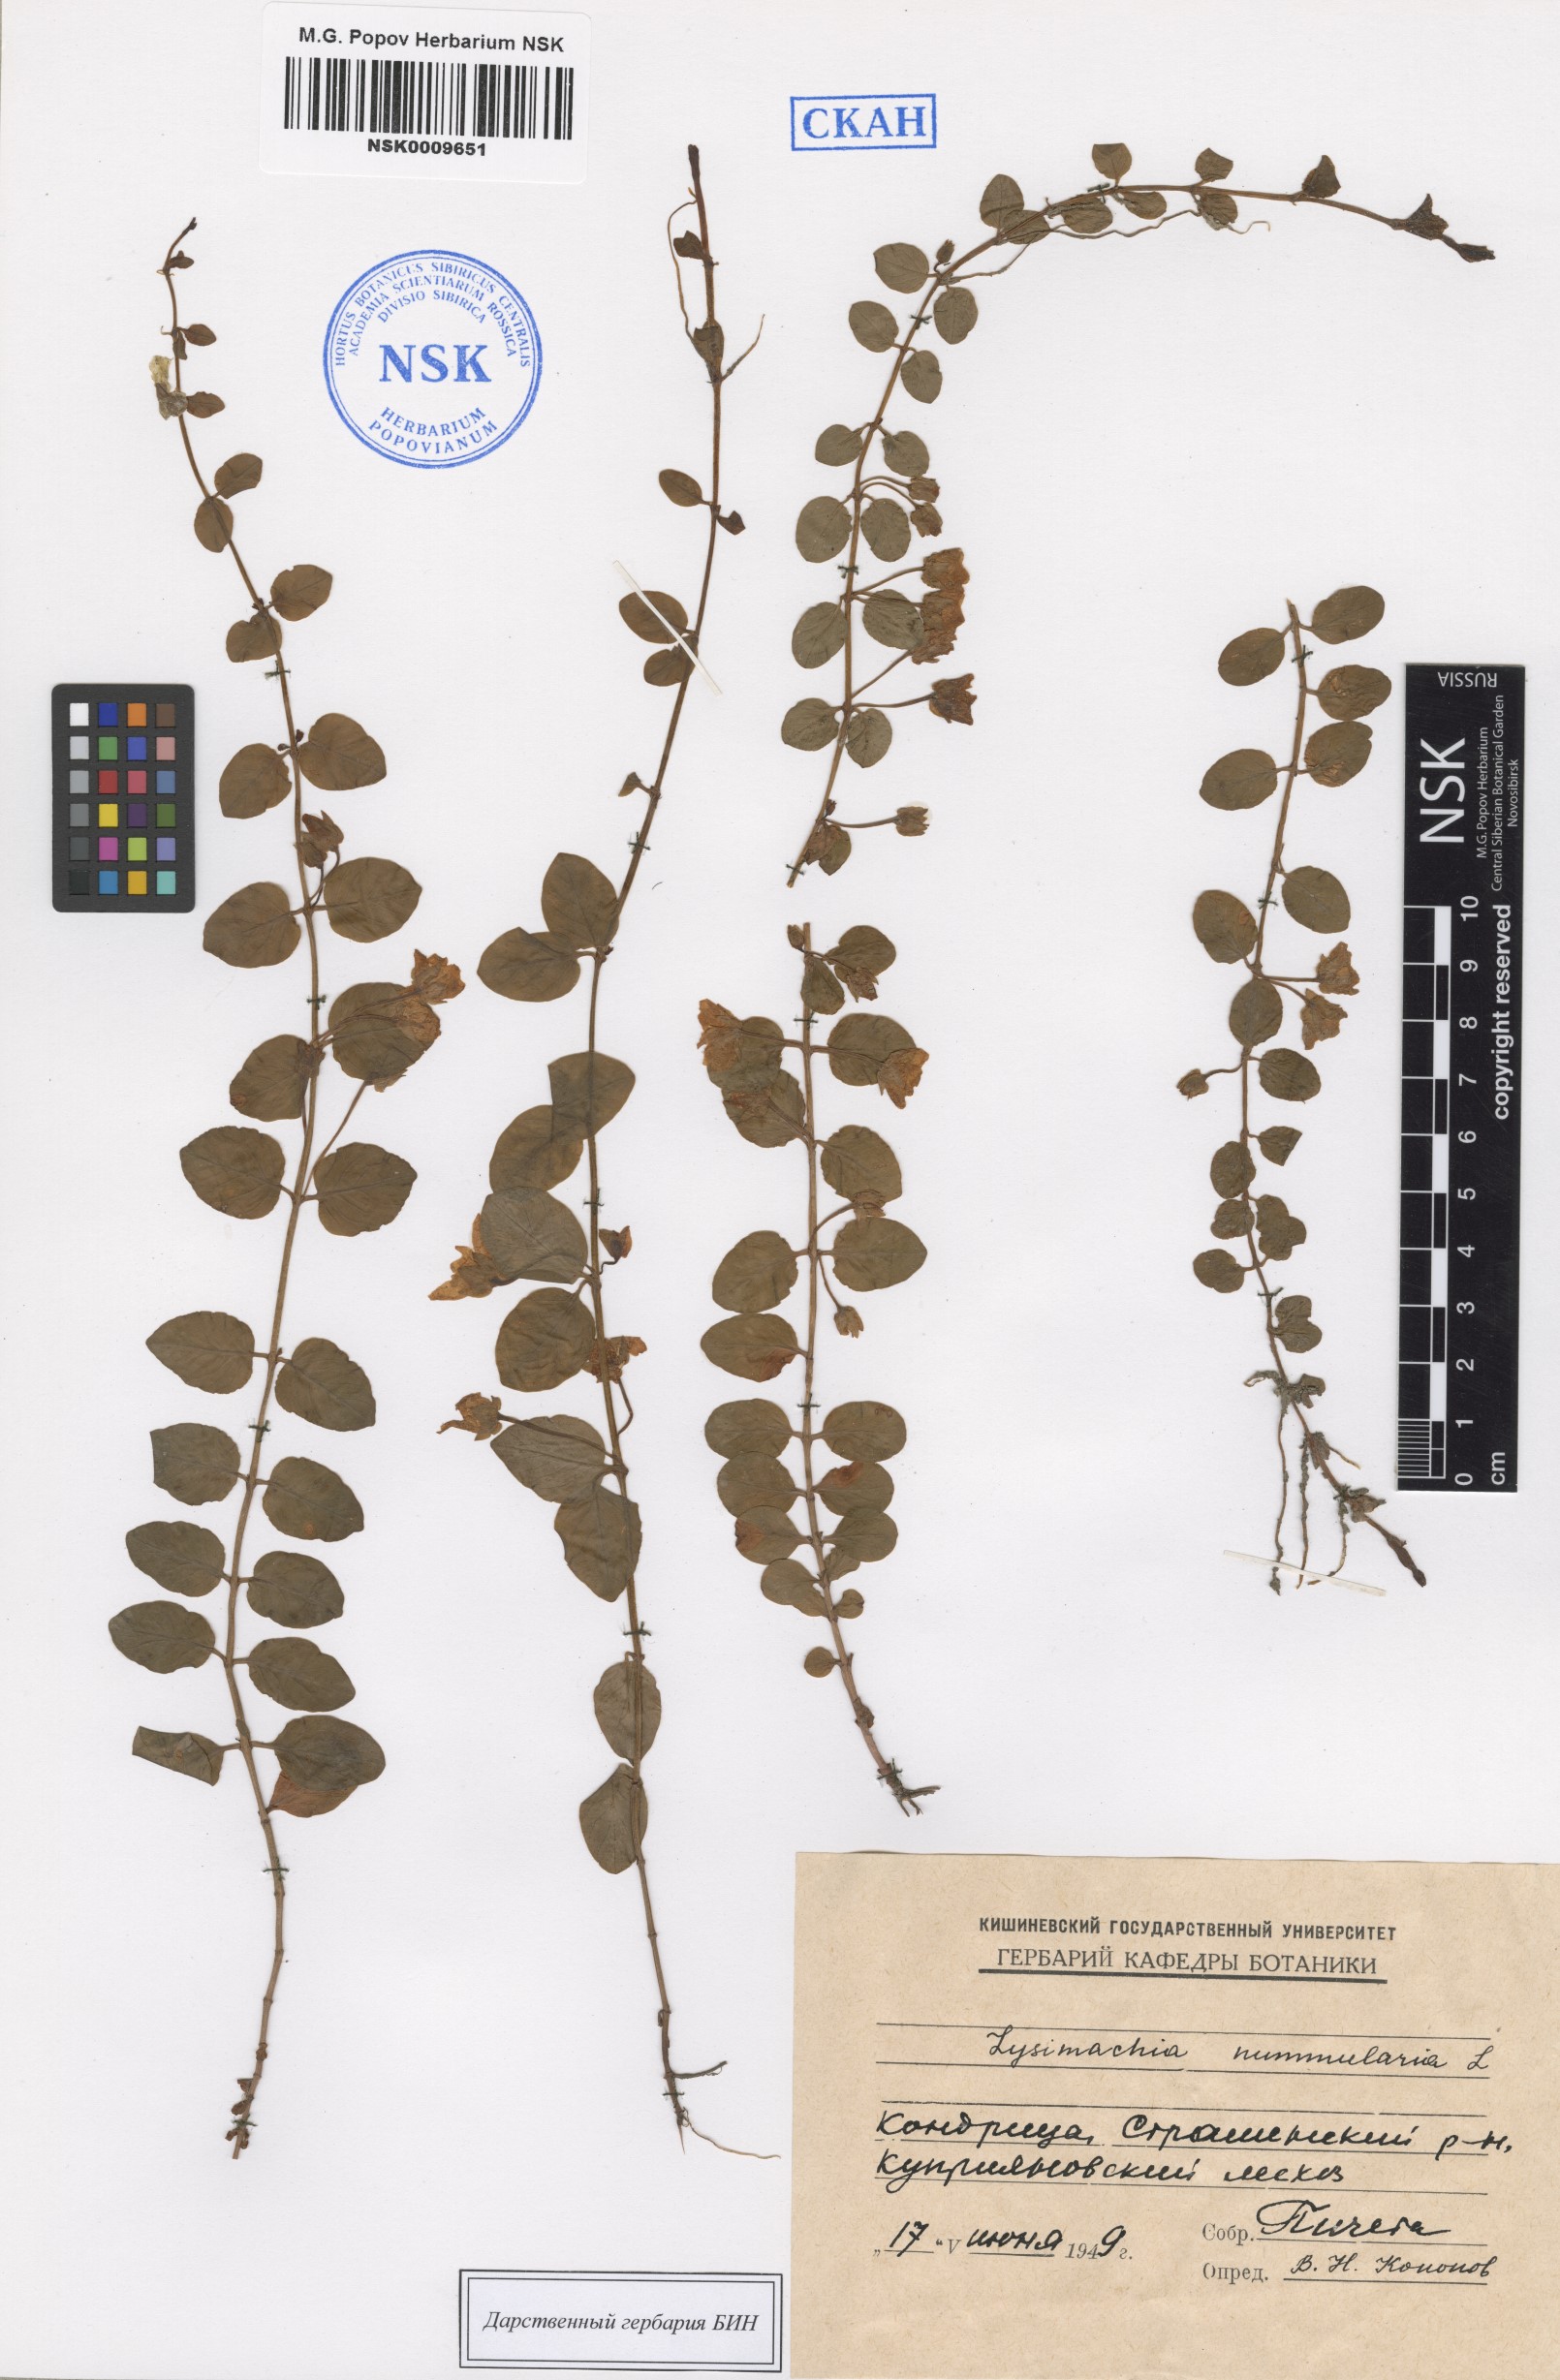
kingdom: Plantae
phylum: Tracheophyta
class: Magnoliopsida
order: Ericales
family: Primulaceae
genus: Lysimachia
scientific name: Lysimachia nummularia
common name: Moneywort
